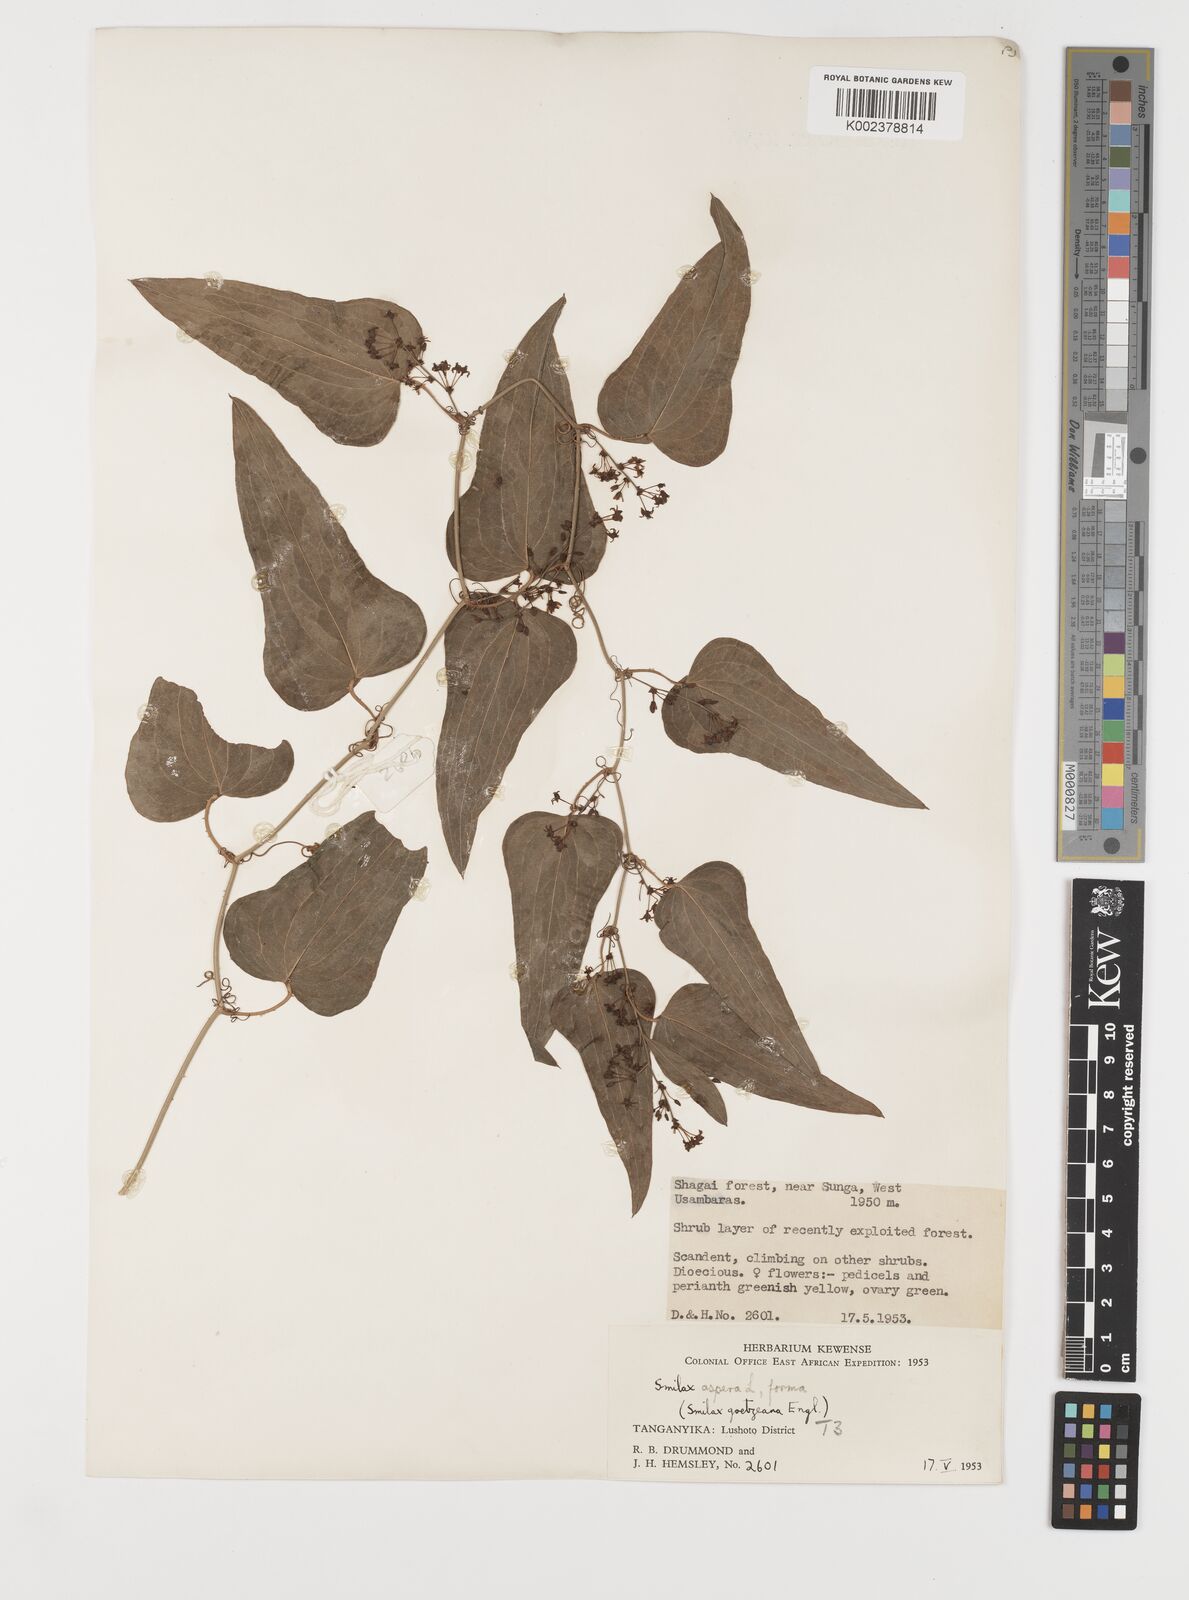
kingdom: Plantae
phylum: Tracheophyta
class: Liliopsida
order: Liliales
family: Smilacaceae
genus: Smilax
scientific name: Smilax aspera
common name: Common smilax
